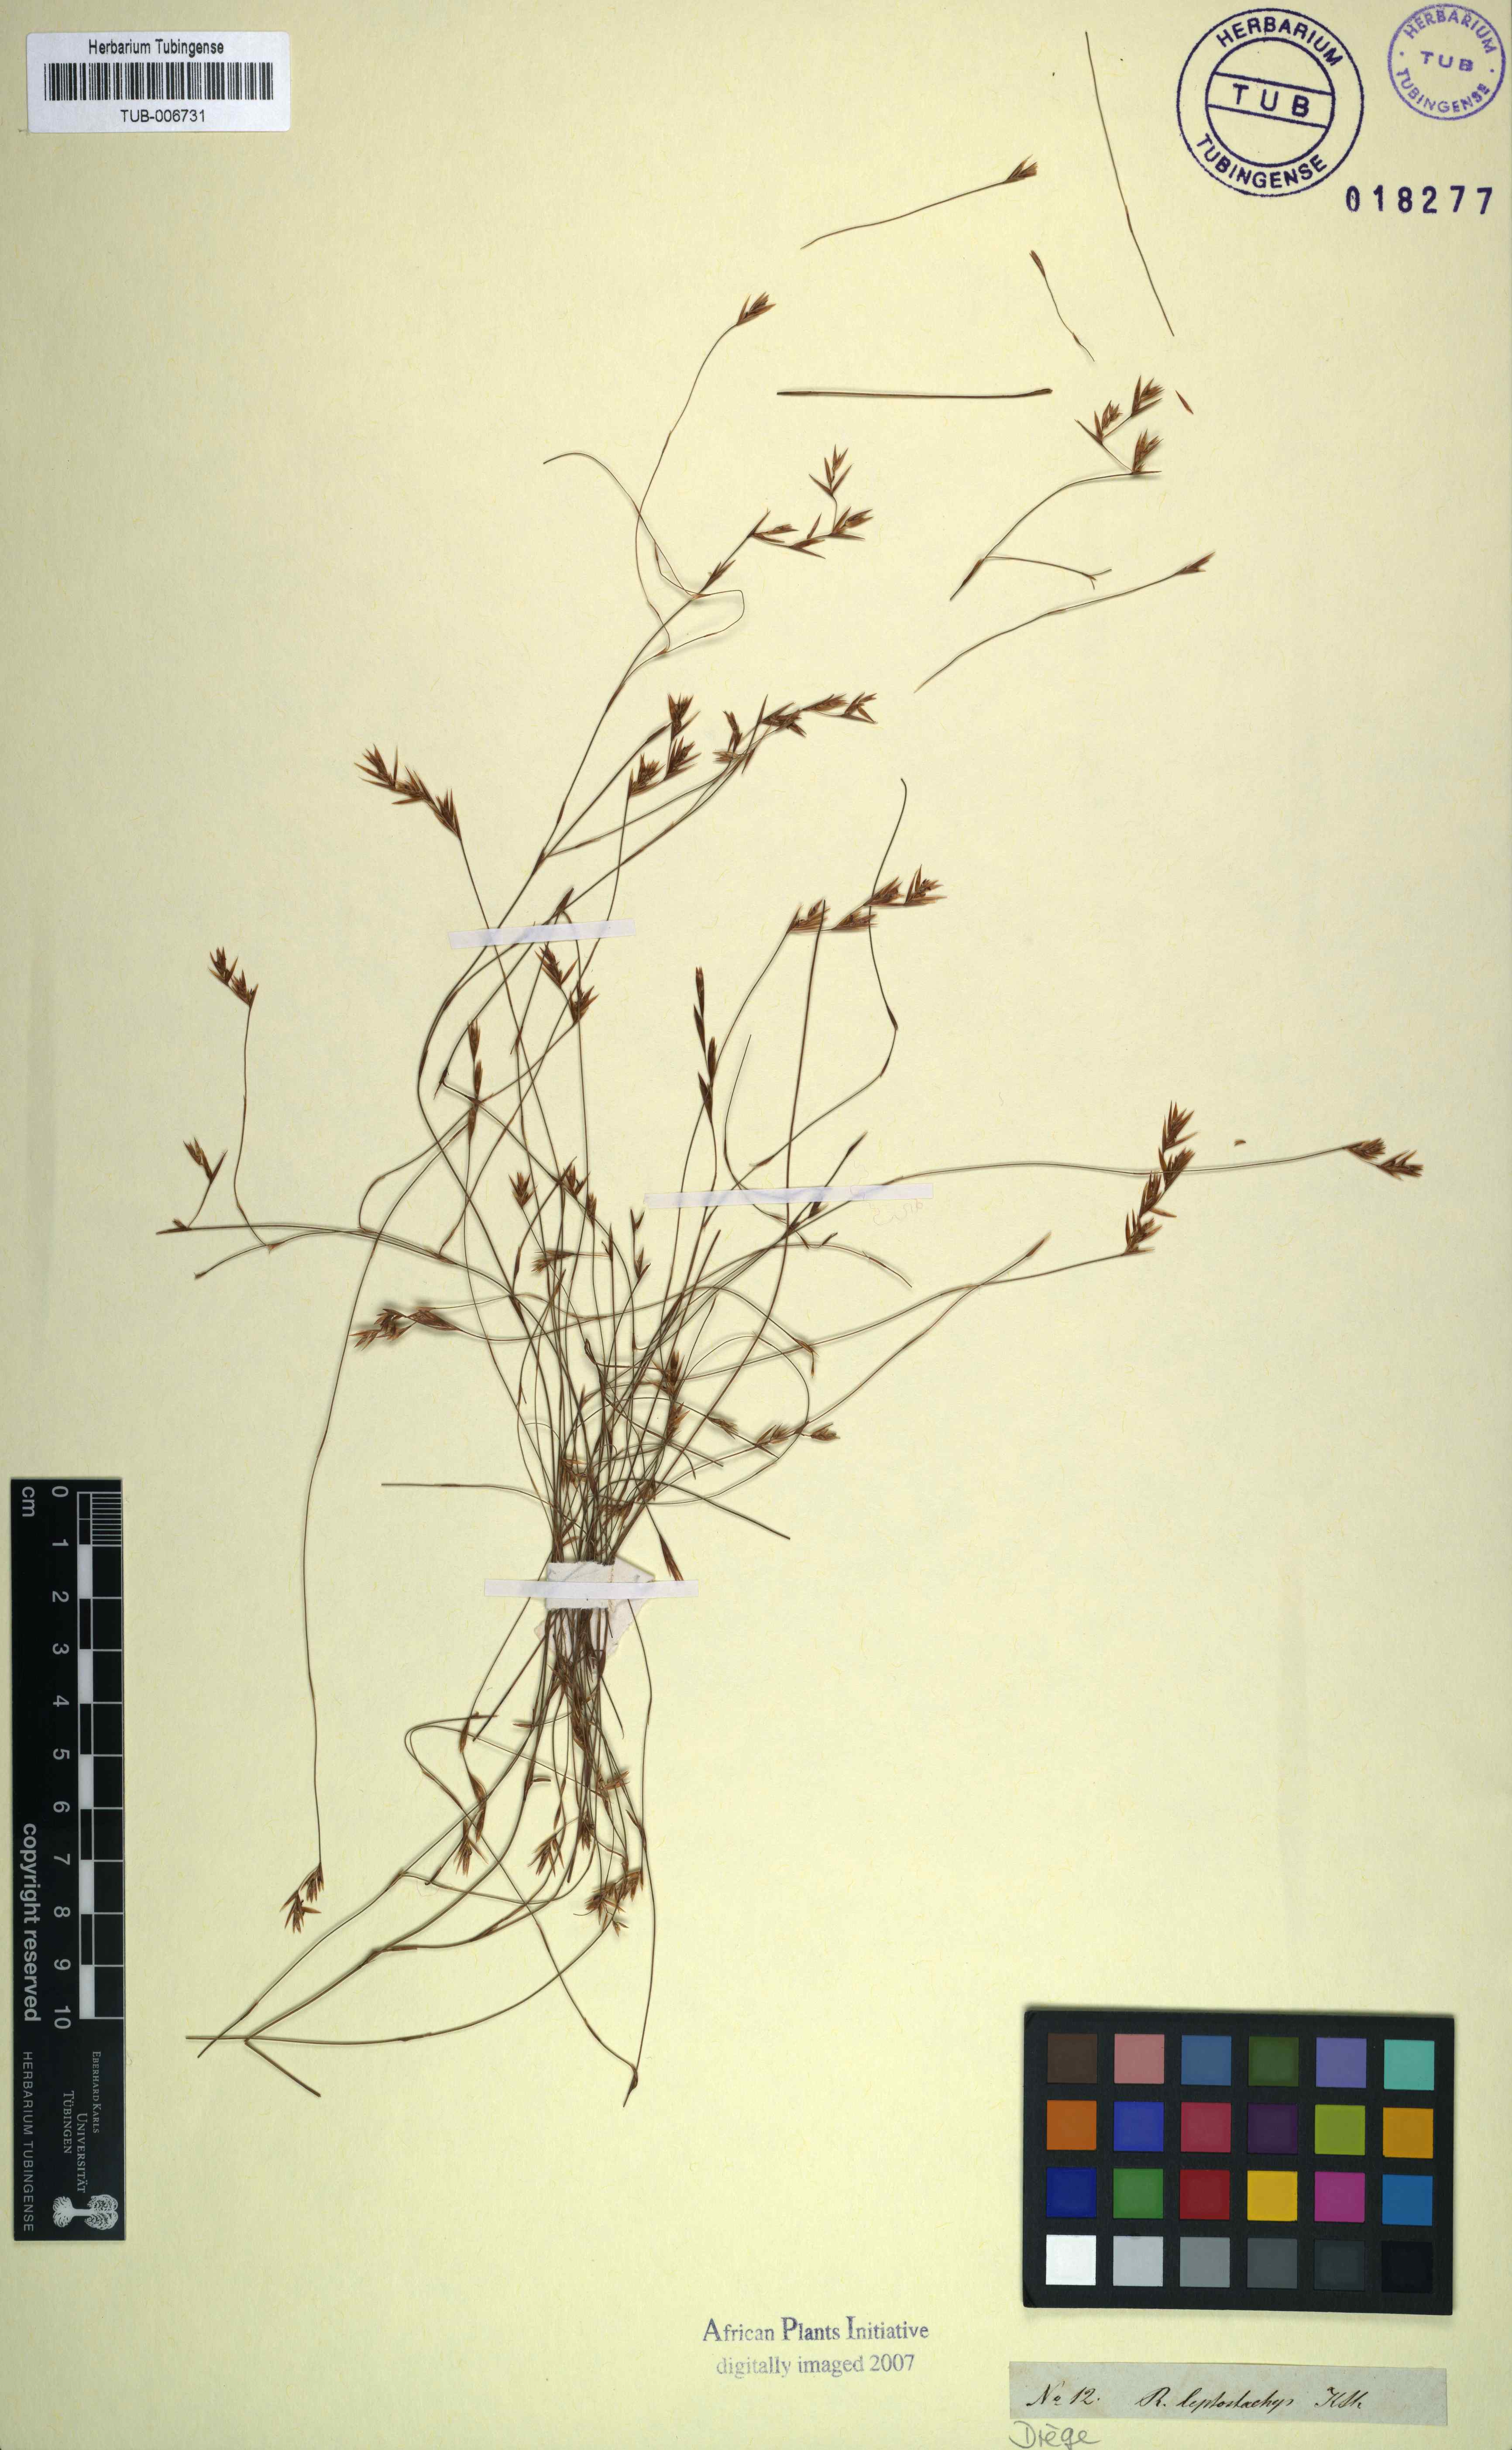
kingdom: Plantae
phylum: Tracheophyta
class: Liliopsida
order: Poales
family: Restionaceae
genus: Restio
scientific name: Restio leptostachyus
